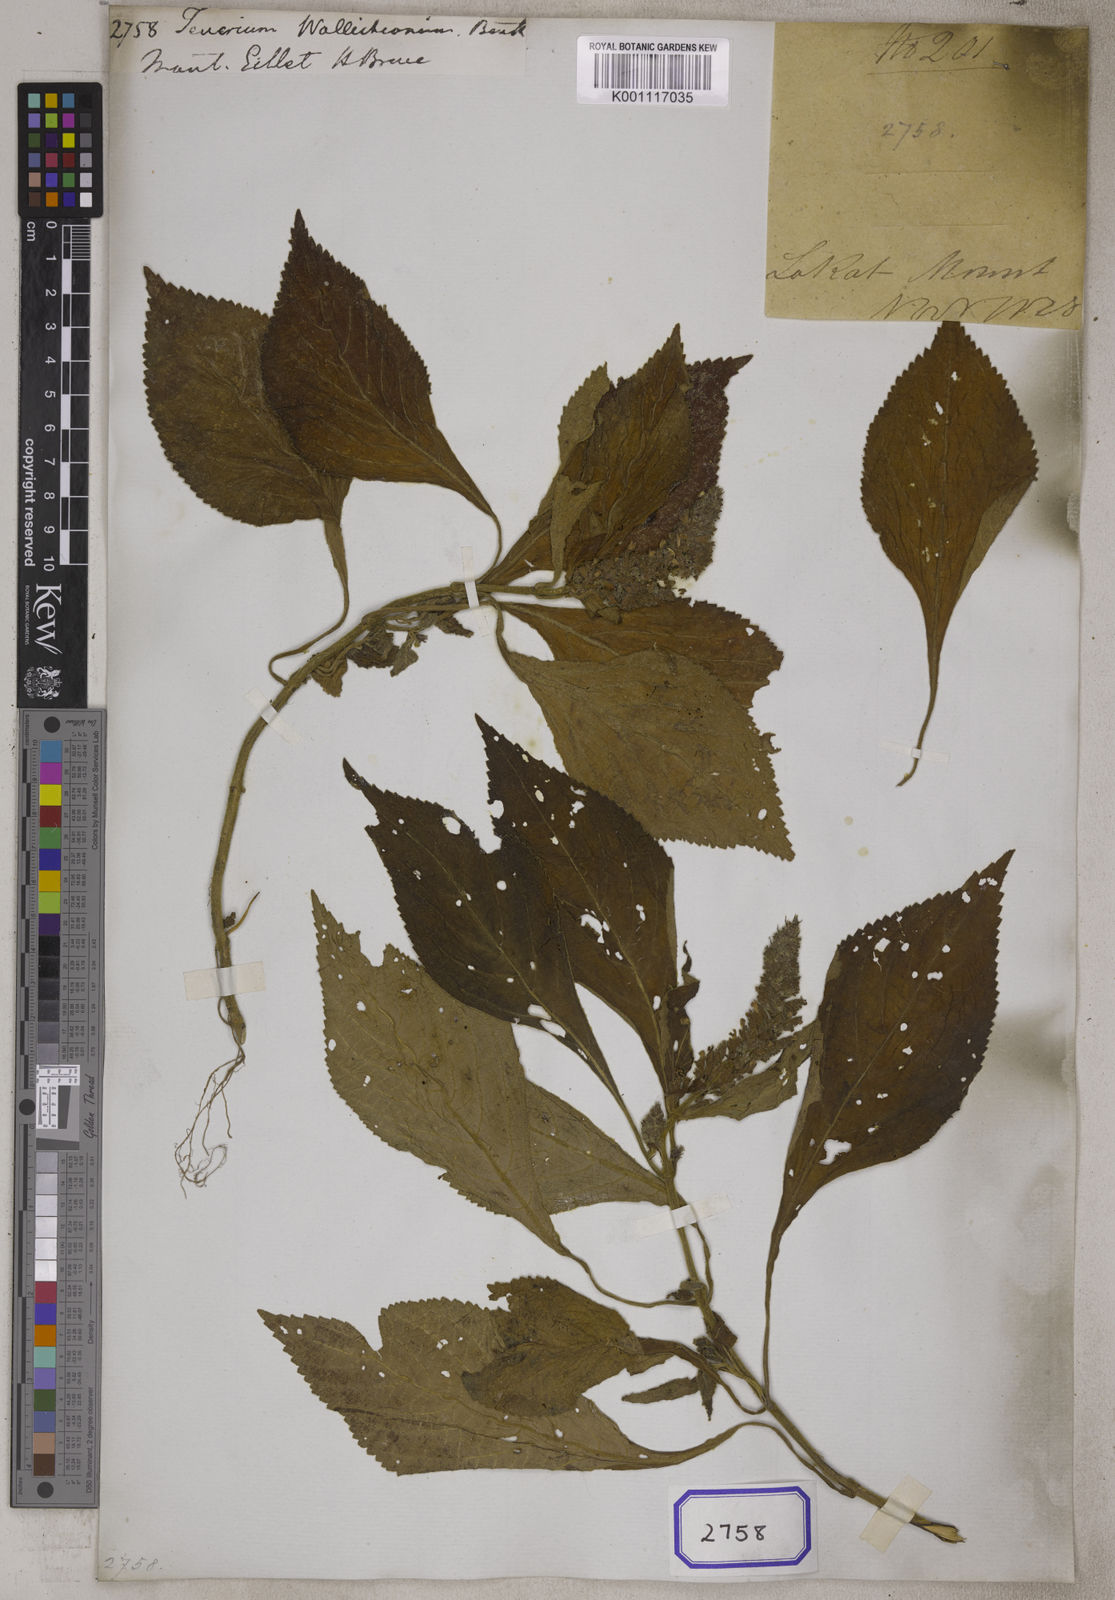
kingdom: Plantae
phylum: Tracheophyta
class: Magnoliopsida
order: Lamiales
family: Lamiaceae
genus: Achyrospermum
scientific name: Achyrospermum densiflorum
